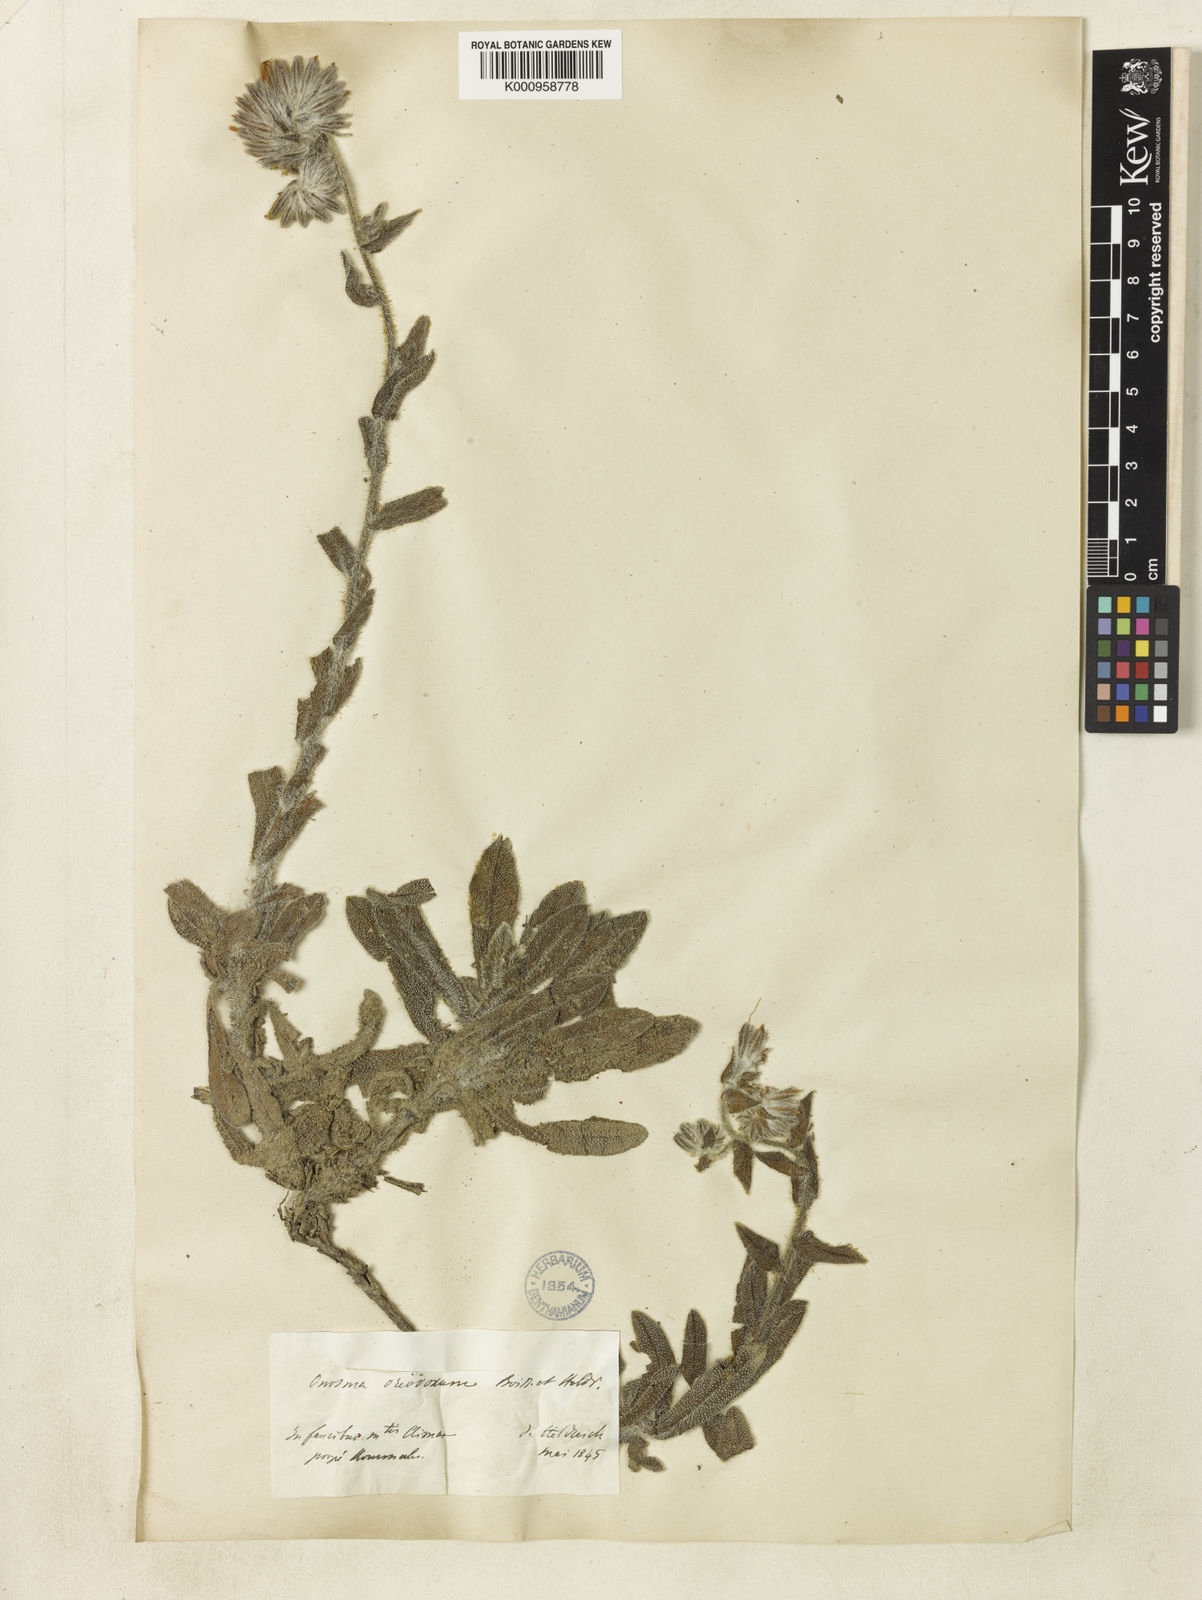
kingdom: Plantae
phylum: Tracheophyta
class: Magnoliopsida
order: Boraginales
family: Boraginaceae
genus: Onosma
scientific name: Onosma oreodoxa
